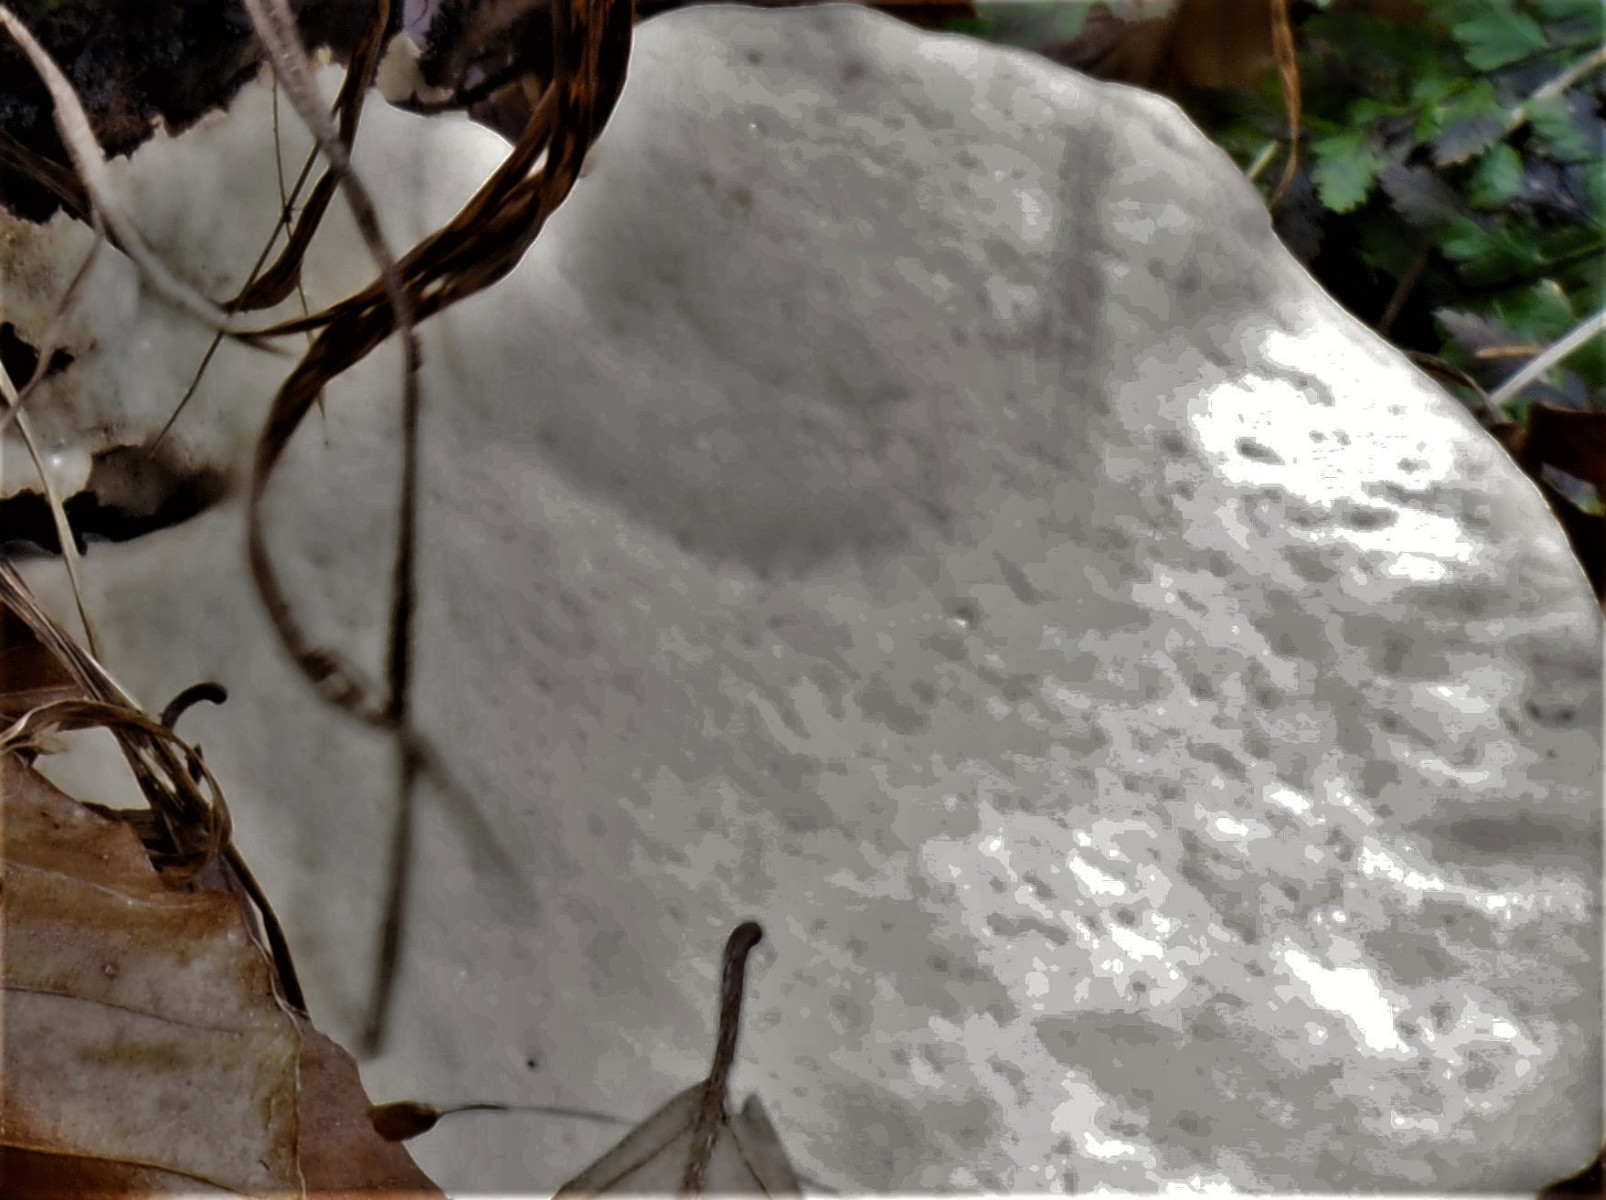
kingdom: Fungi
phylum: Basidiomycota
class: Agaricomycetes
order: Polyporales
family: Ischnodermataceae
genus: Ischnoderma
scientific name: Ischnoderma resinosum
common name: løv-tjæreporesvamp
